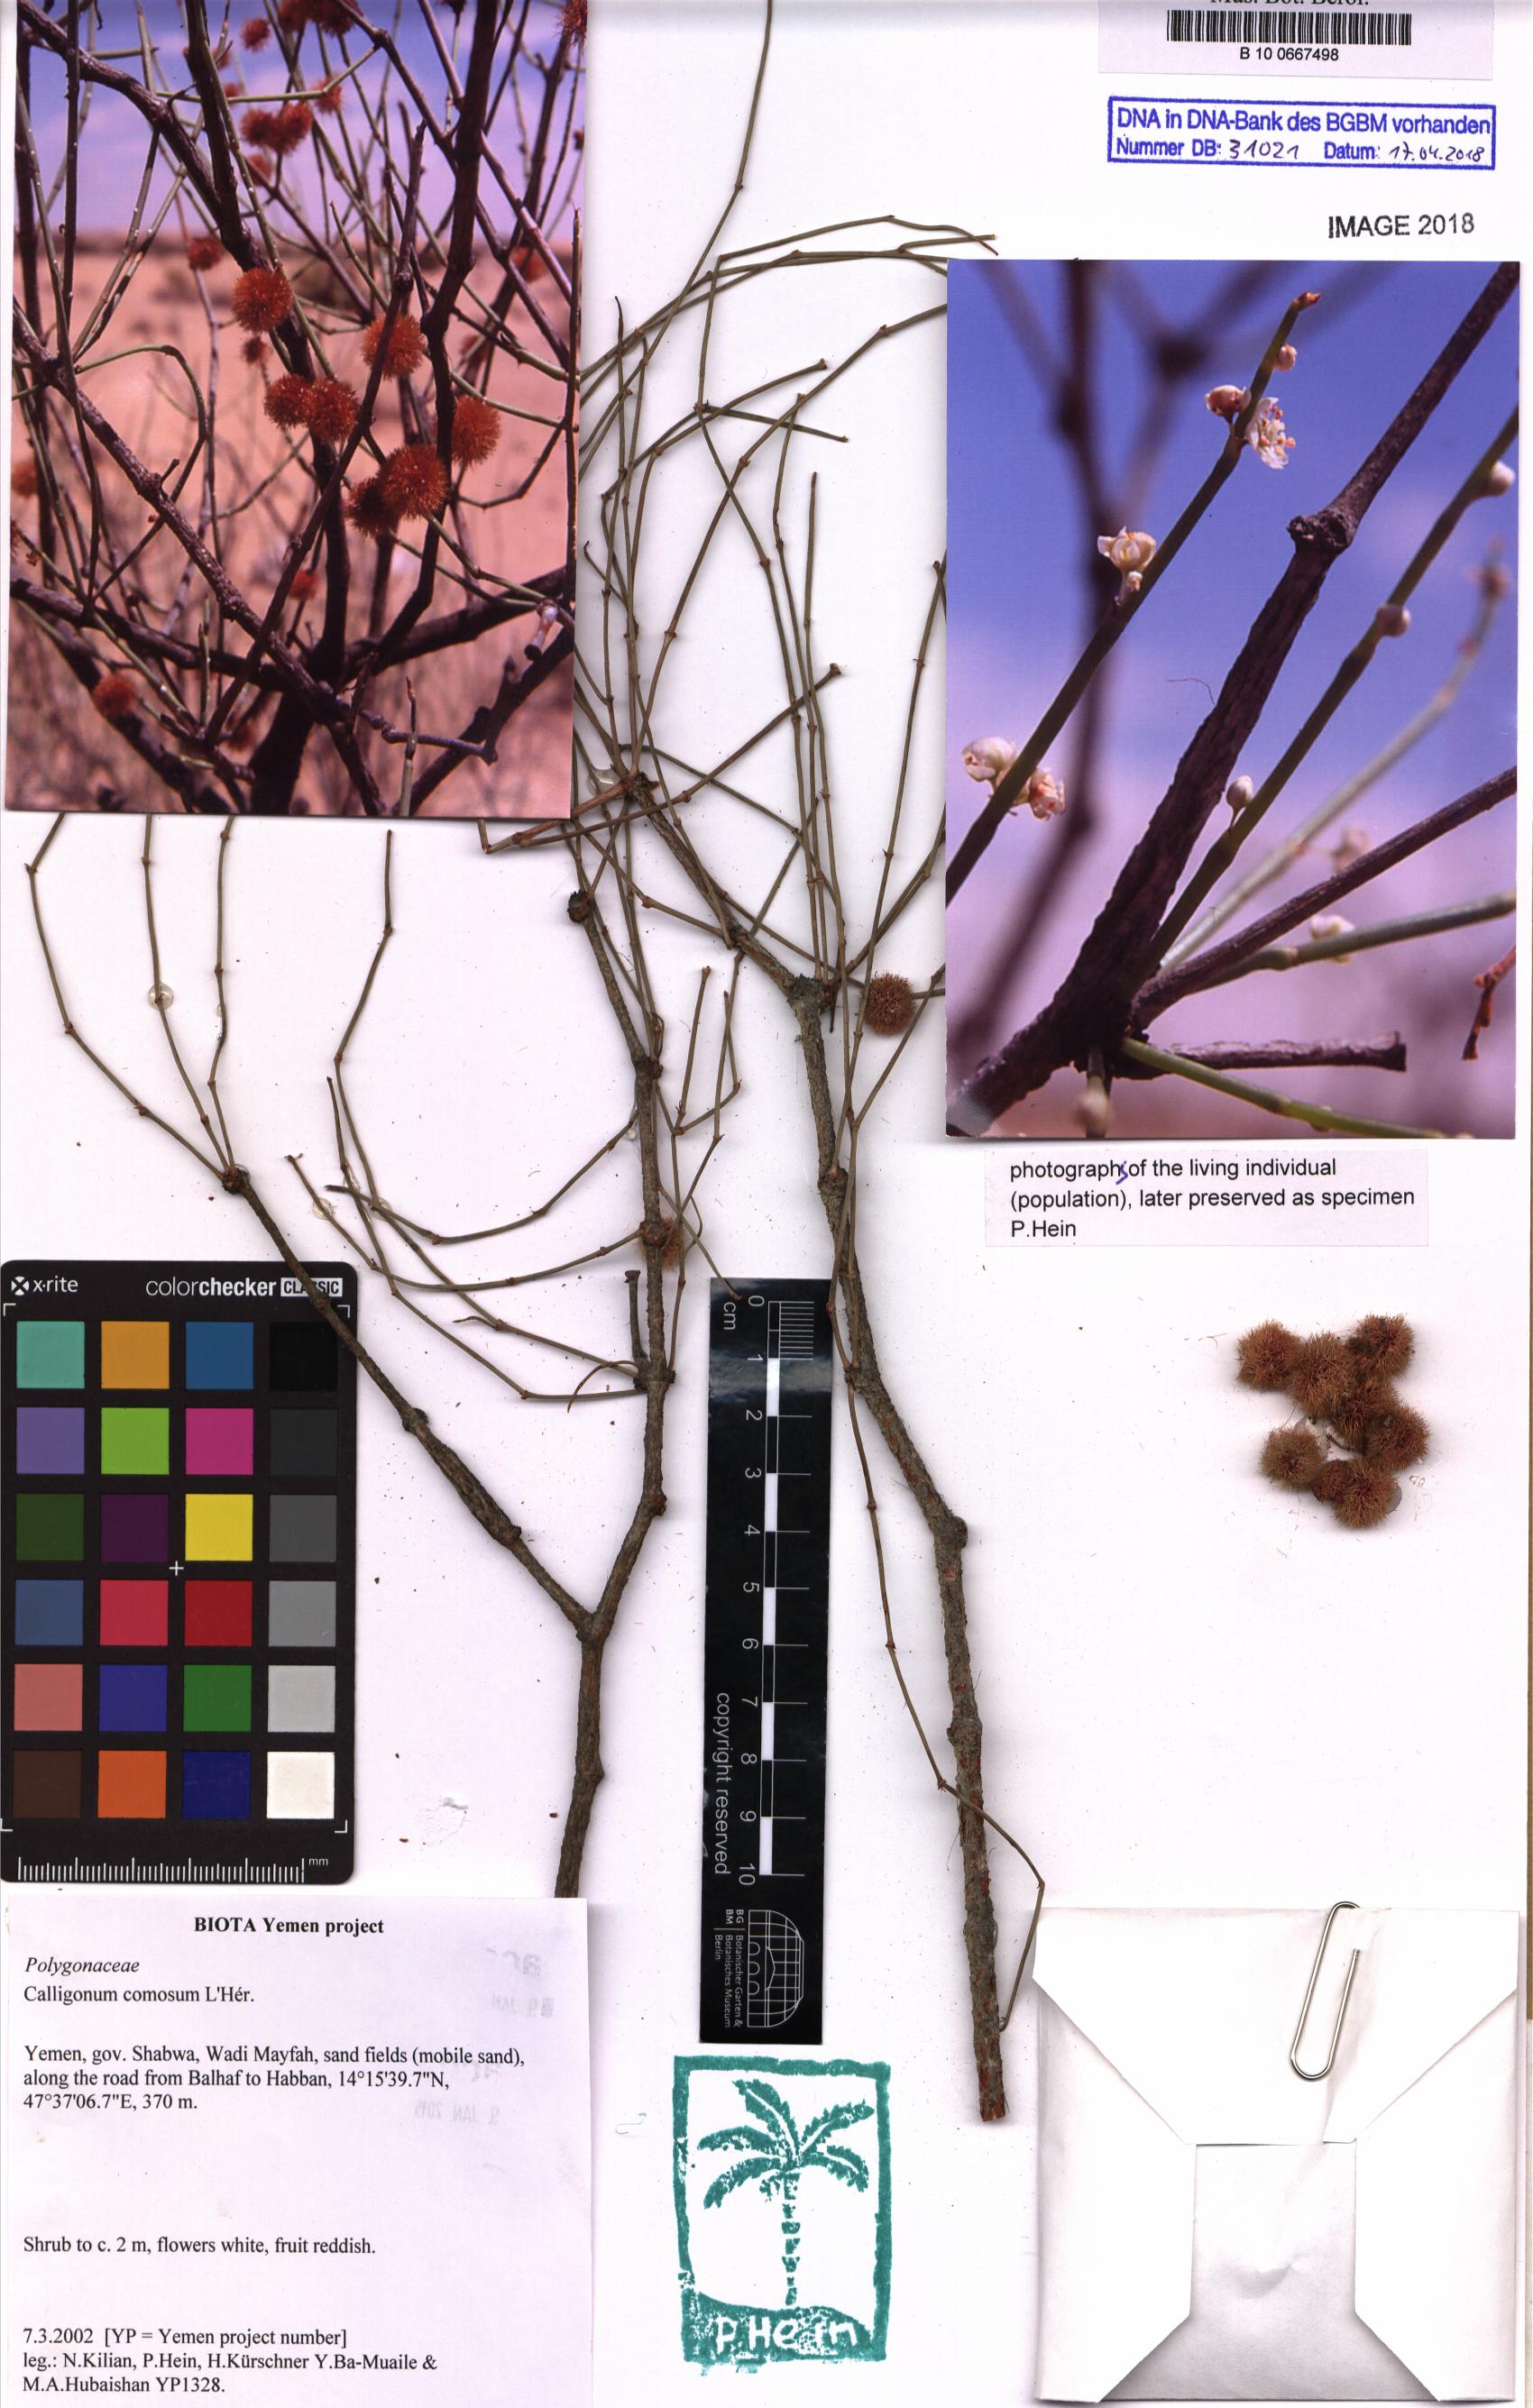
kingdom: Plantae
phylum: Tracheophyta
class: Magnoliopsida
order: Caryophyllales
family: Polygonaceae
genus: Calligonum
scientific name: Calligonum comosum
